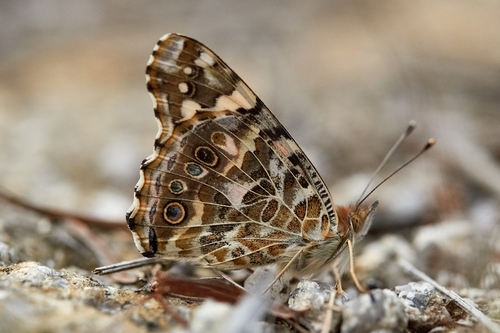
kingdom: Animalia
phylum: Arthropoda
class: Insecta
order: Lepidoptera
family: Nymphalidae
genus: Vanessa
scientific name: Vanessa cardui
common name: Painted lady
